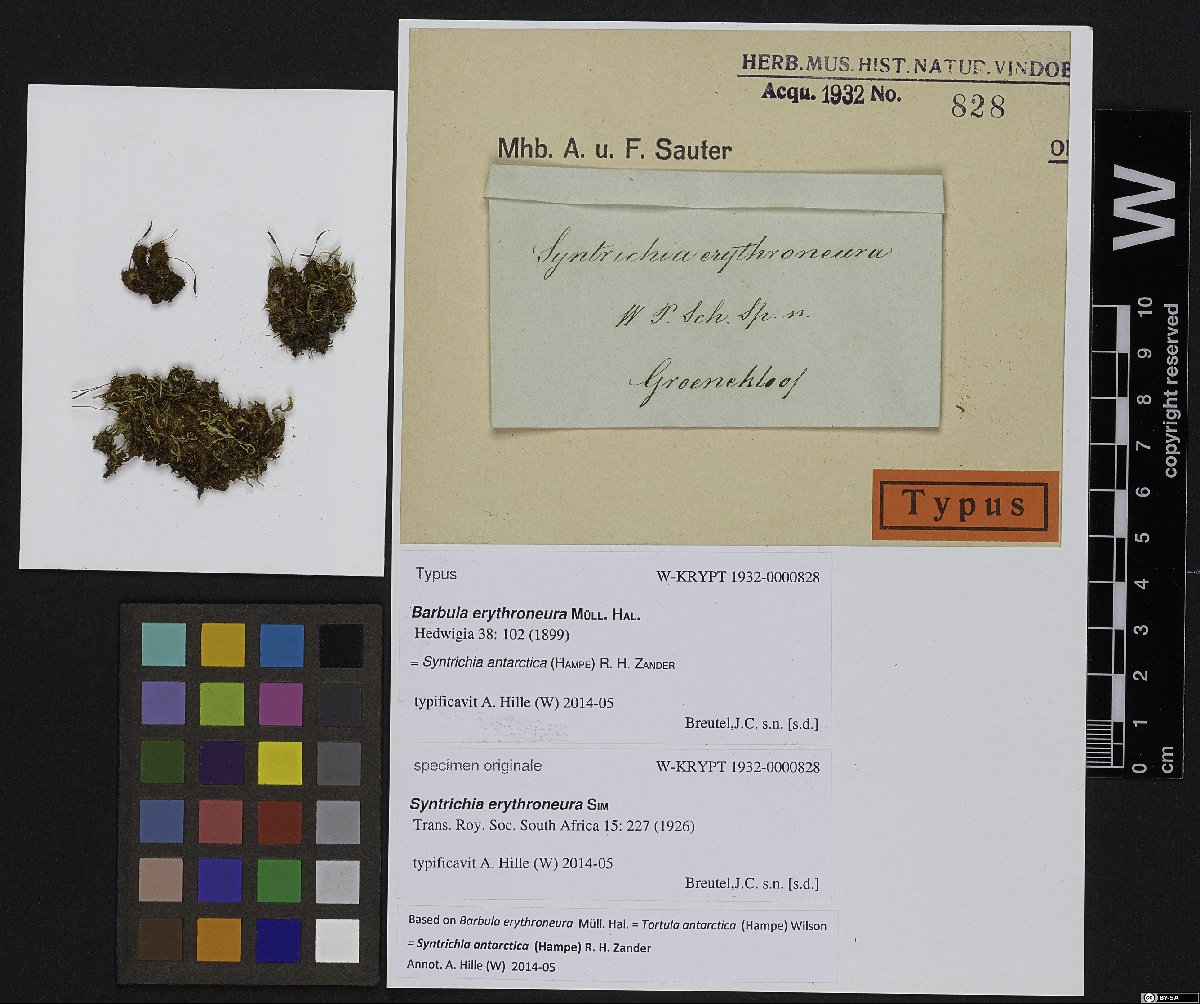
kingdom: Plantae
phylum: Bryophyta
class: Bryopsida
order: Pottiales
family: Pottiaceae
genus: Syntrichia
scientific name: Syntrichia antarctica
